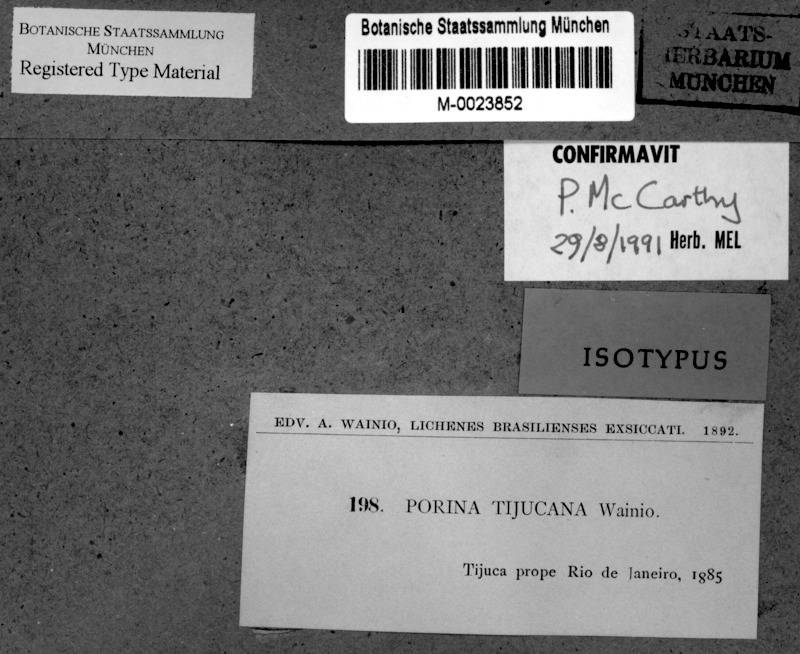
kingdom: Fungi
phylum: Ascomycota
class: Lecanoromycetes
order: Pertusariales
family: Pertusariaceae
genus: Porina
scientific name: Porina tijucana
